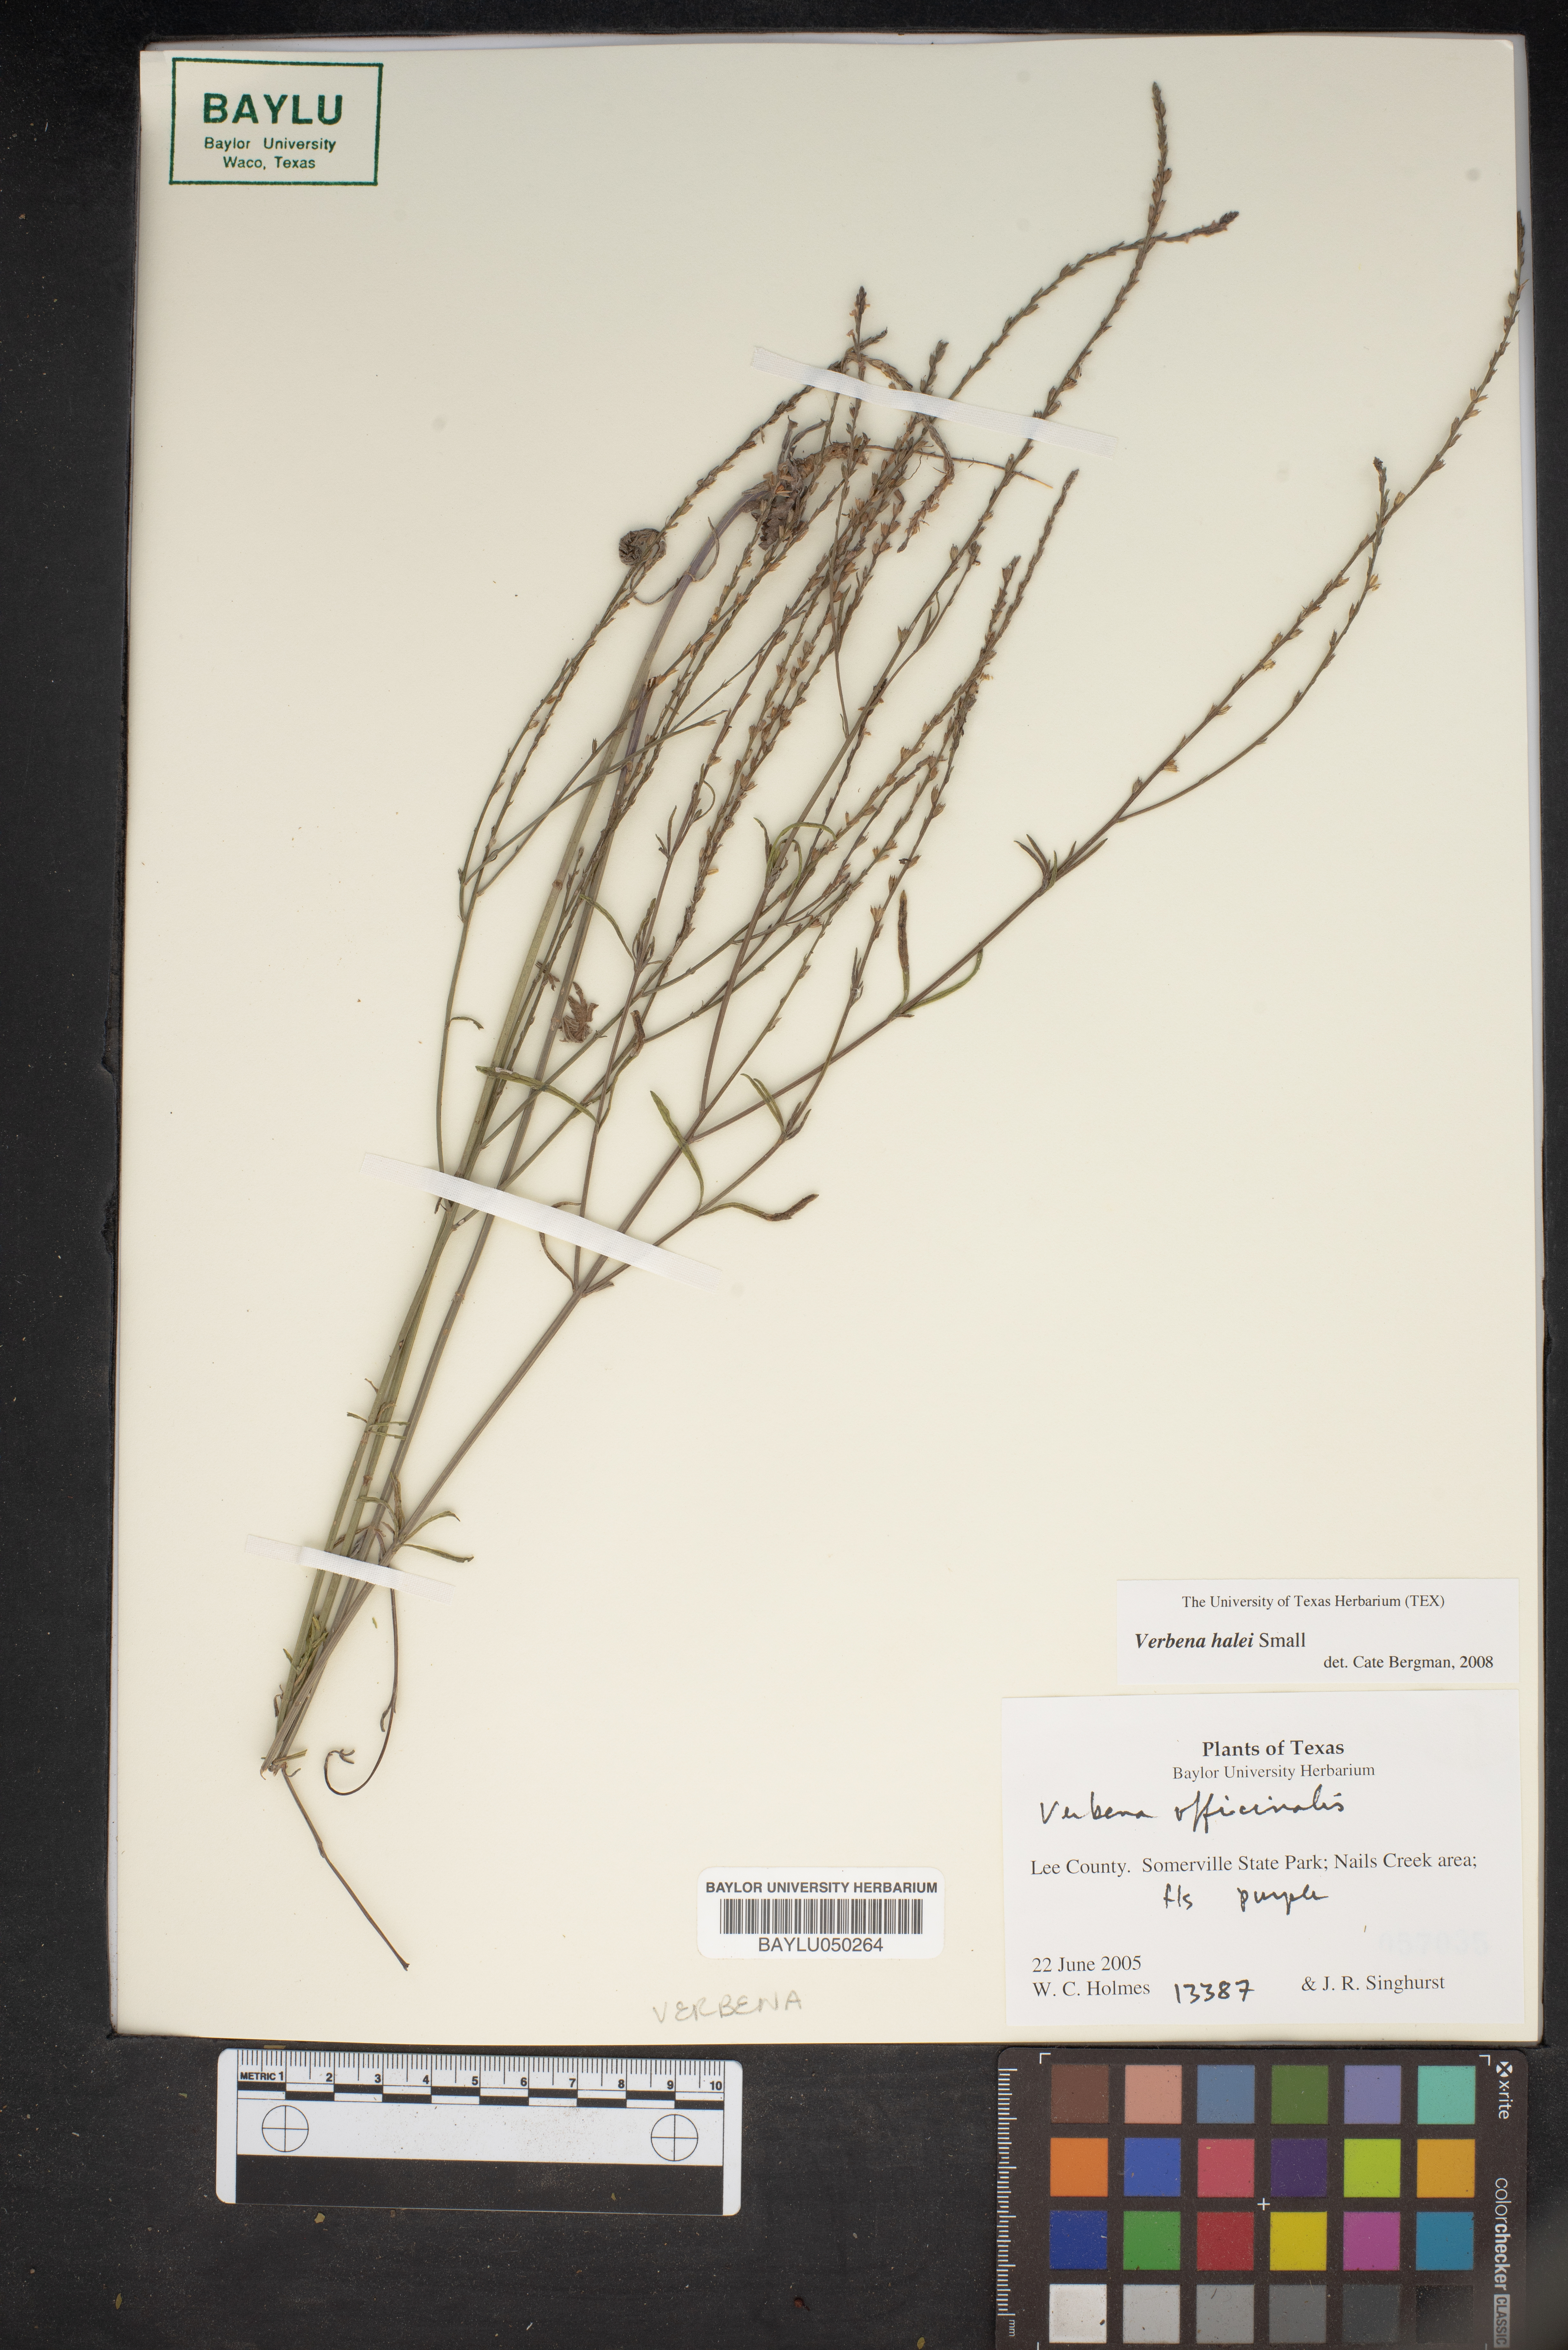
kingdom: Plantae
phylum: Tracheophyta
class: Magnoliopsida
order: Lamiales
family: Verbenaceae
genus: Verbena
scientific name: Verbena halei
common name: Texas vervain
